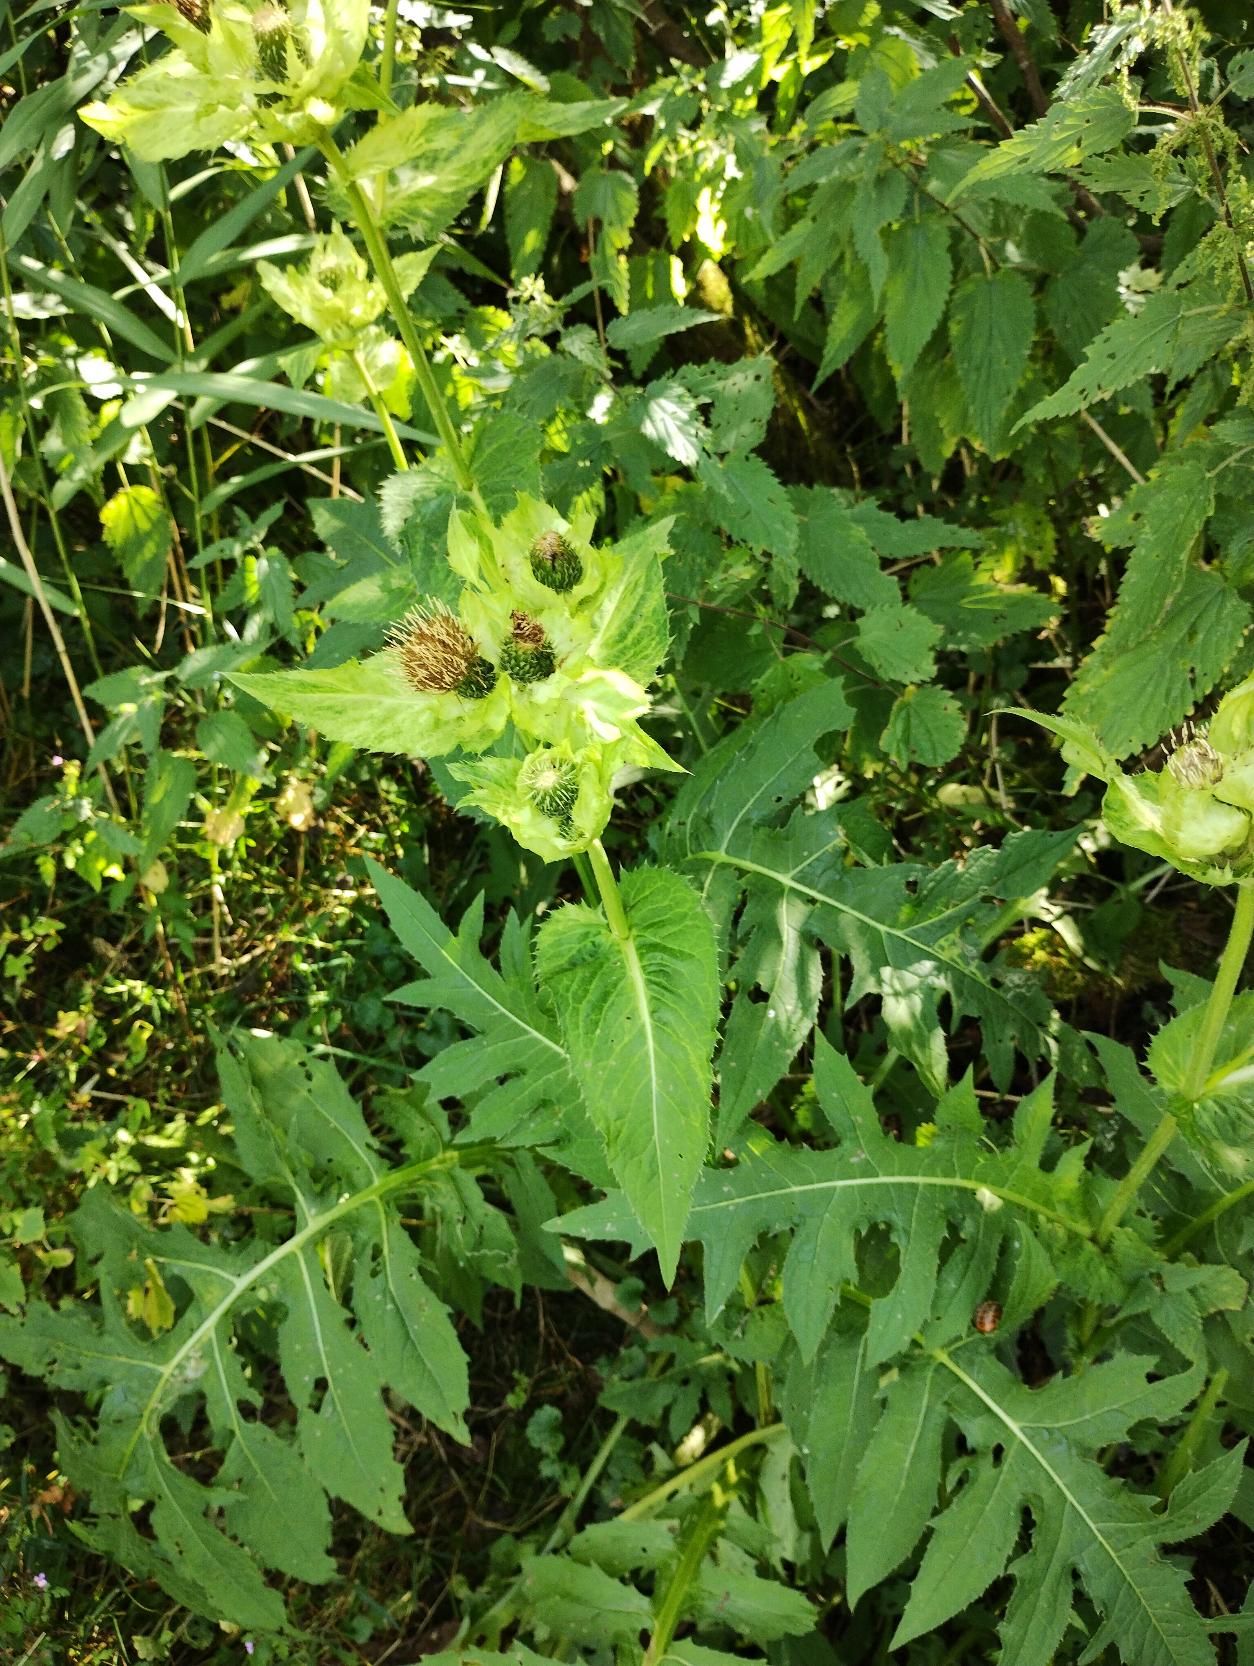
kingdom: Plantae
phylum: Tracheophyta
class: Magnoliopsida
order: Asterales
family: Asteraceae
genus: Cirsium
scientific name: Cirsium oleraceum
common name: Kål-tidsel
